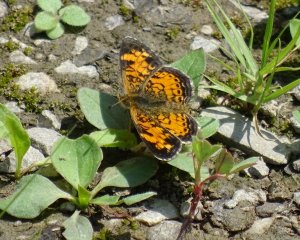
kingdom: Animalia
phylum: Arthropoda
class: Insecta
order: Lepidoptera
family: Nymphalidae
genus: Phyciodes
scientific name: Phyciodes tharos
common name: Pearl Crescent
